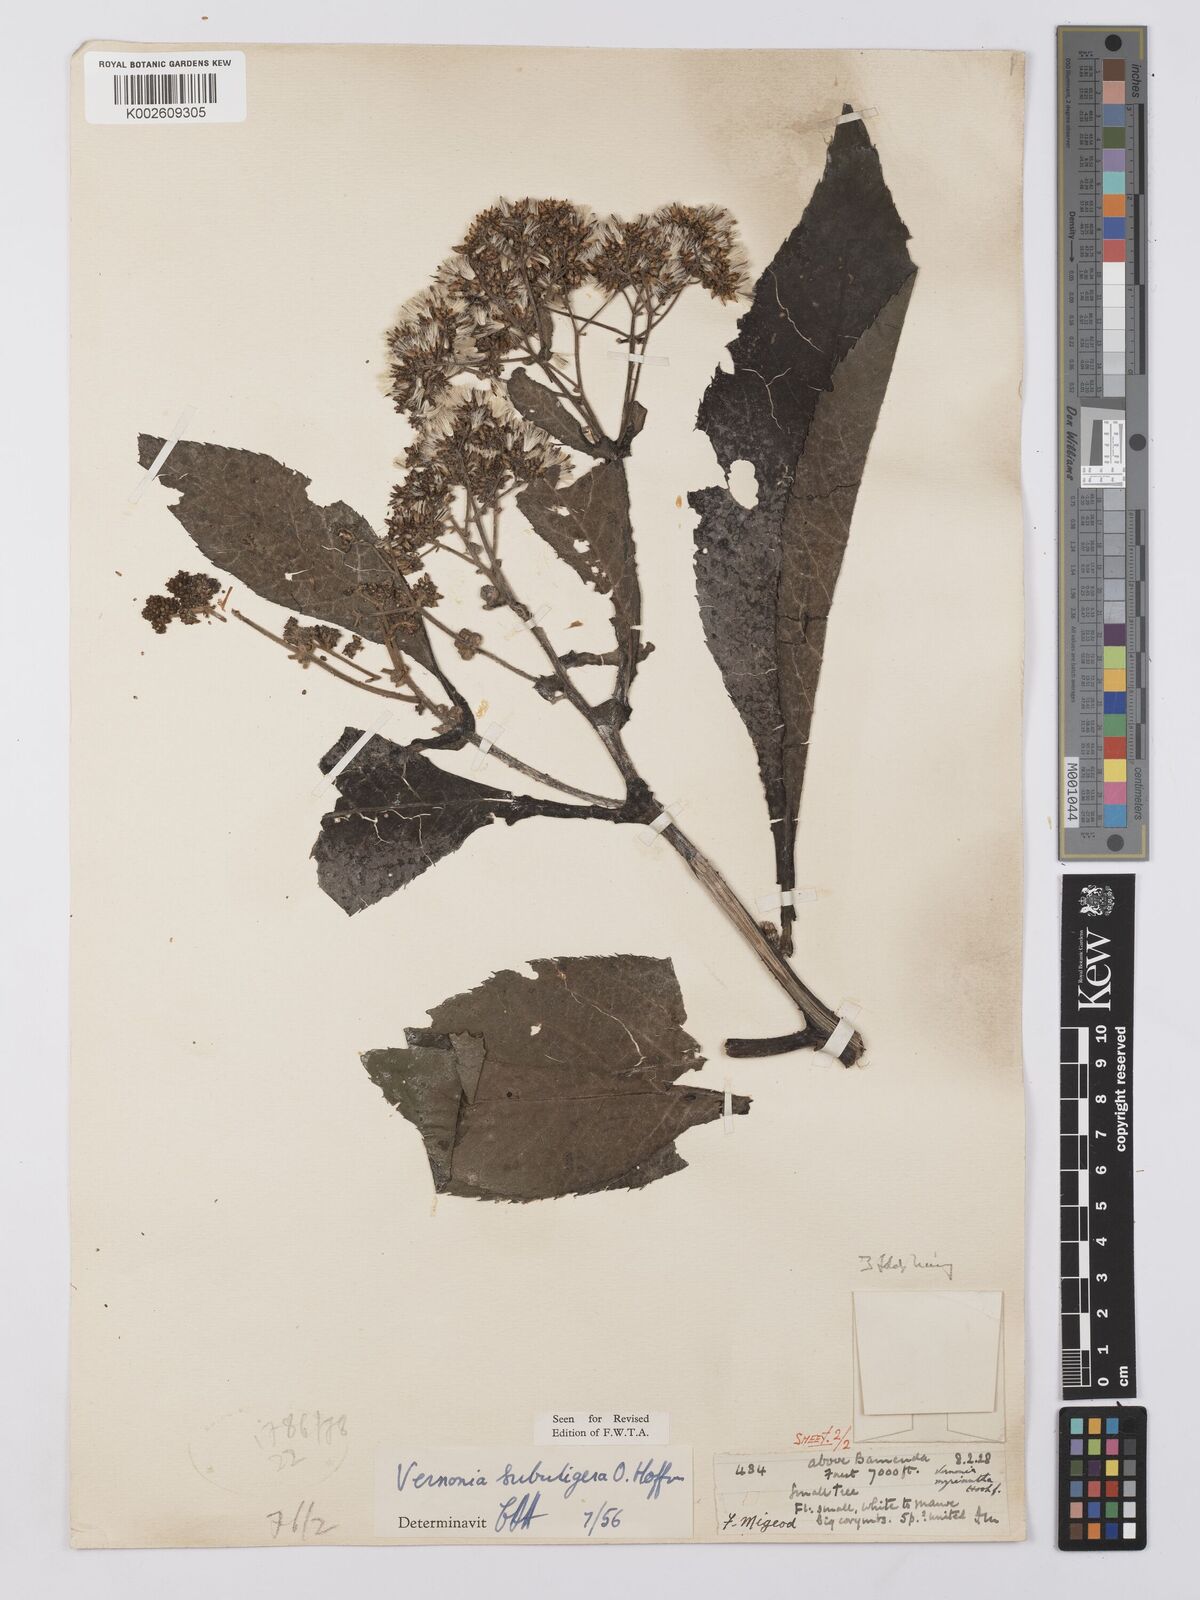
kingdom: Plantae
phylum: Tracheophyta
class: Magnoliopsida
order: Asterales
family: Asteraceae
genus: Gymnanthemum
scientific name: Gymnanthemum myrianthum
